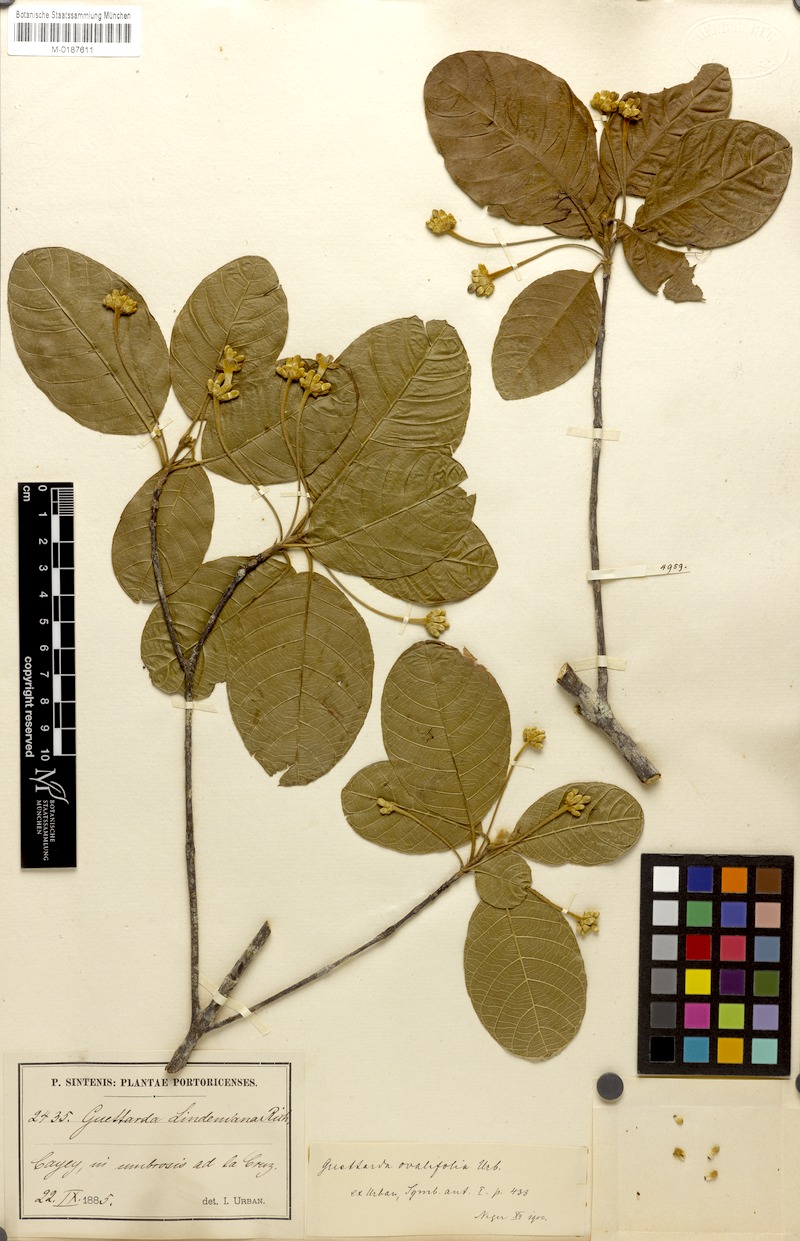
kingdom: Plantae
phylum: Tracheophyta
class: Magnoliopsida
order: Gentianales
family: Rubiaceae
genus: Guettarda
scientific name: Guettarda ovalifolia
